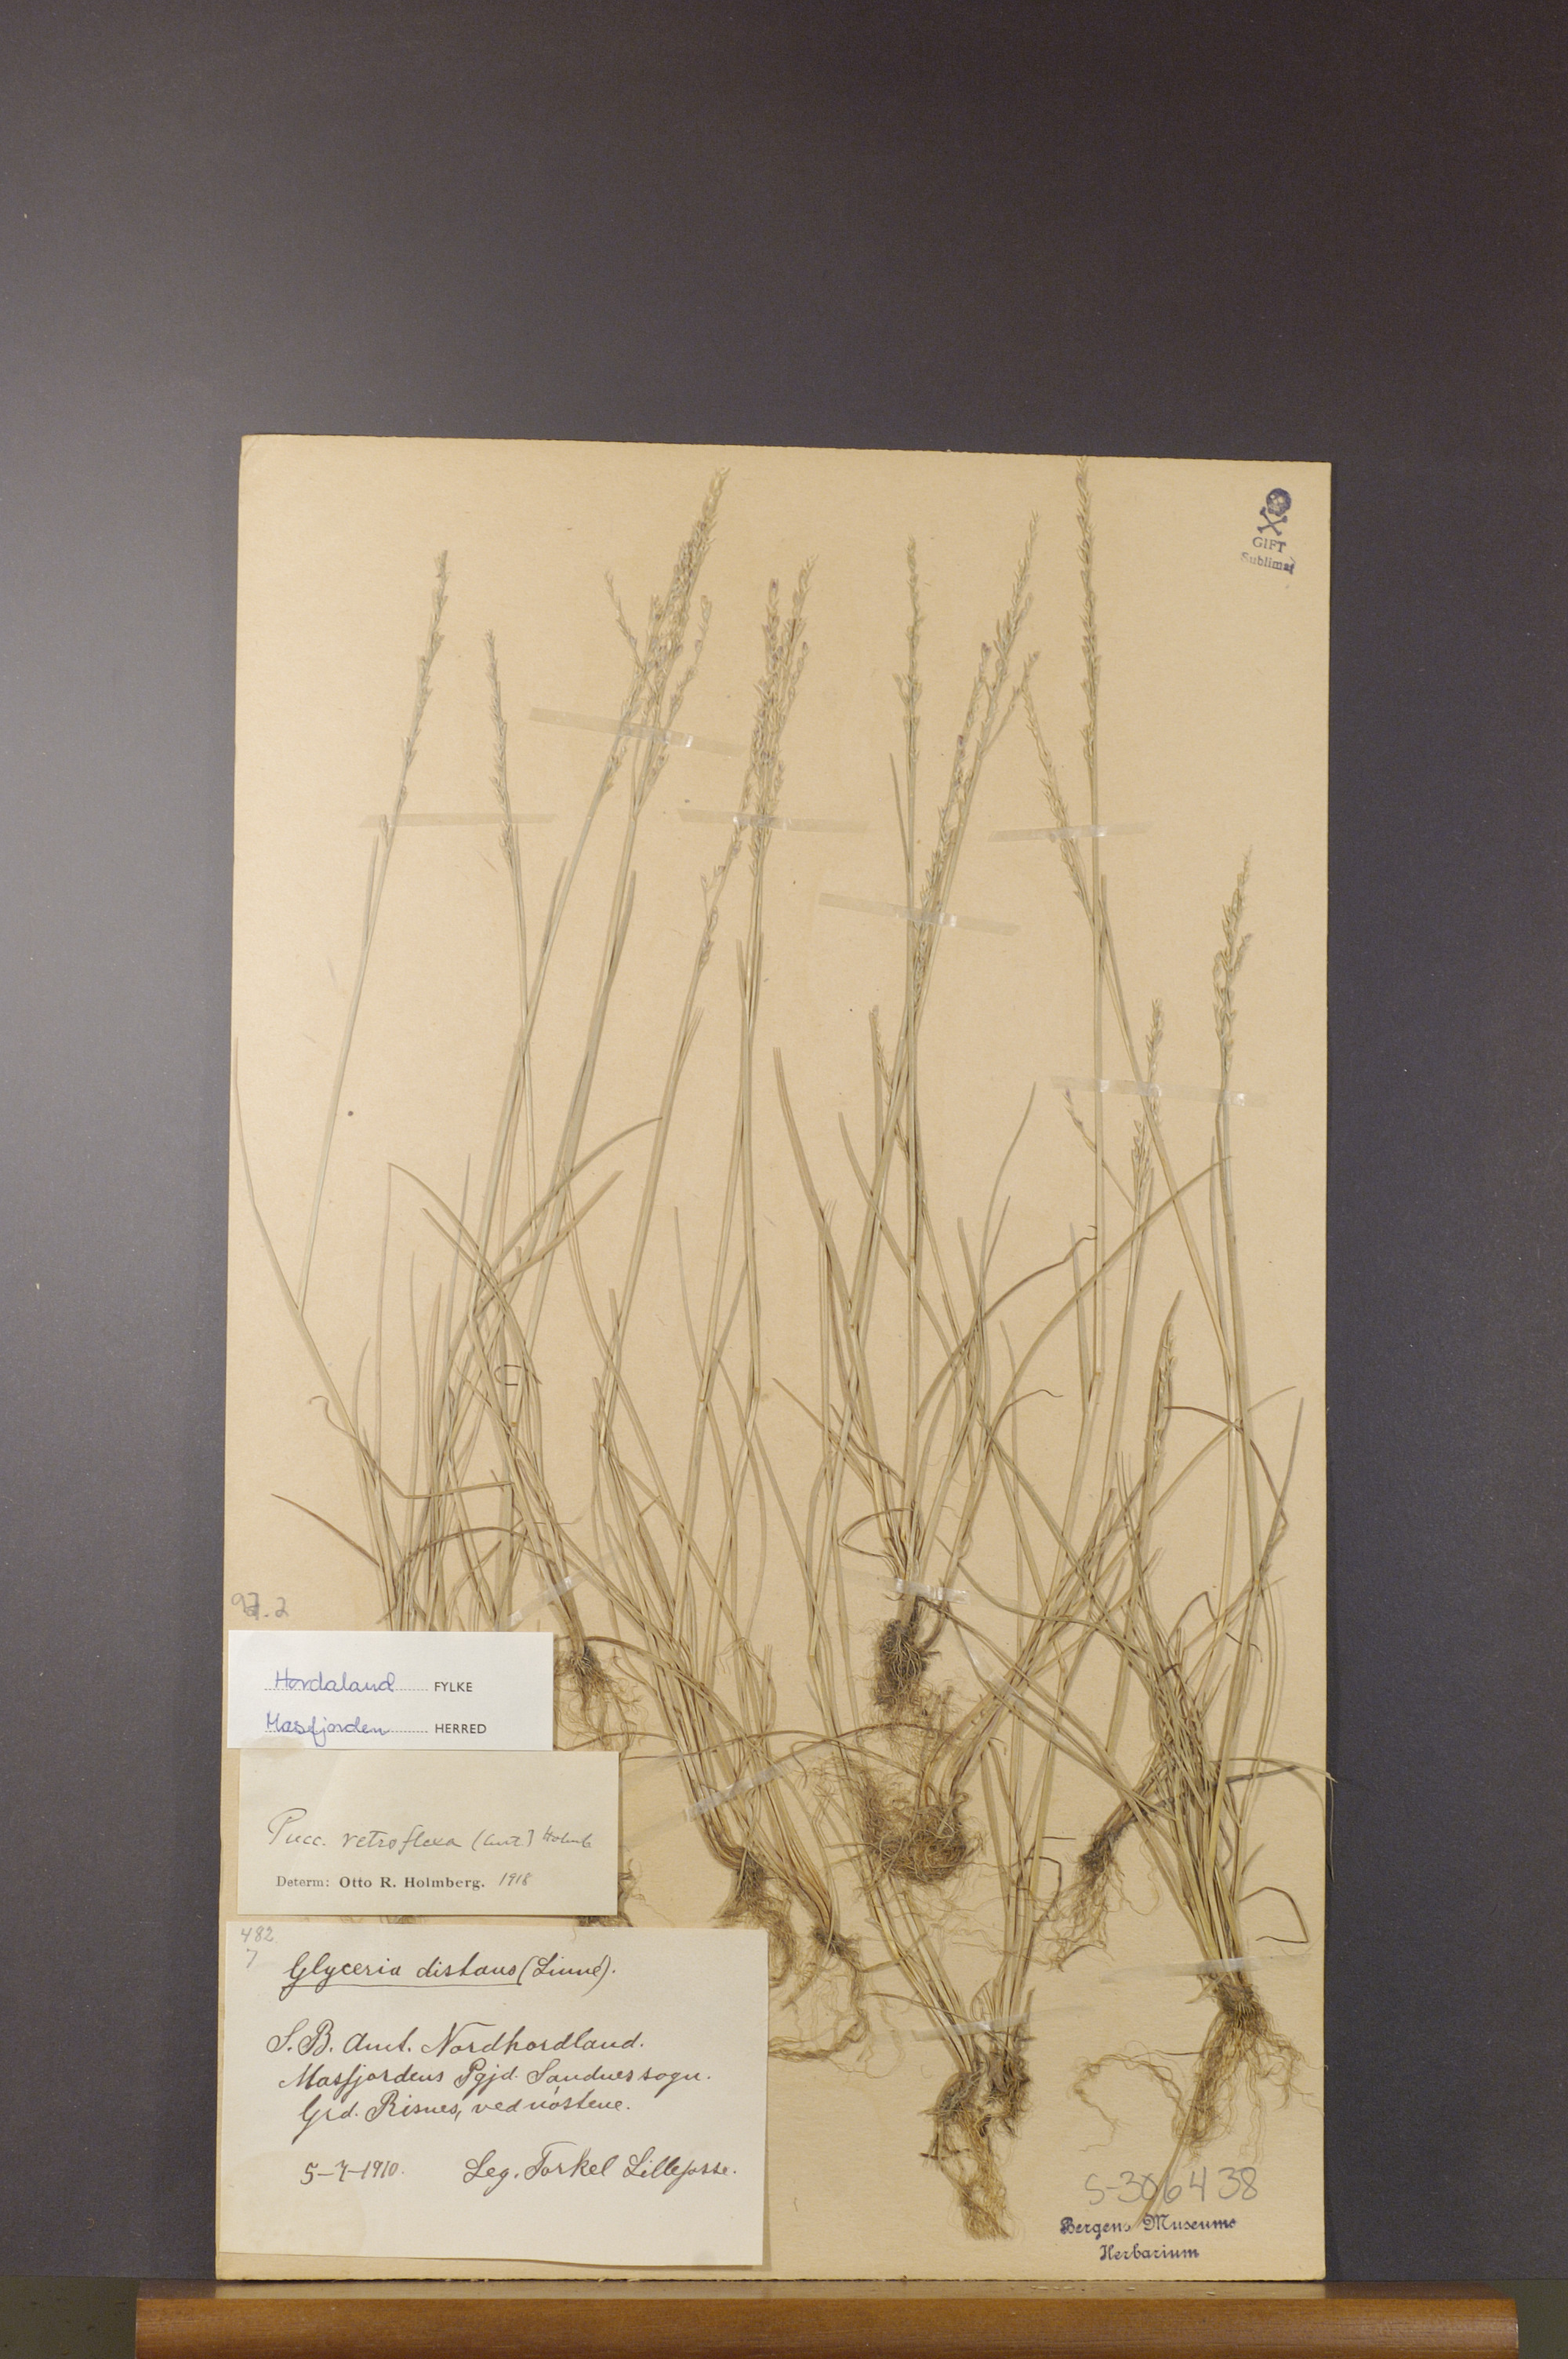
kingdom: Plantae
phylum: Tracheophyta
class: Liliopsida
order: Poales
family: Poaceae
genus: Puccinellia
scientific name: Puccinellia distans
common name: Weeping alkaligrass
